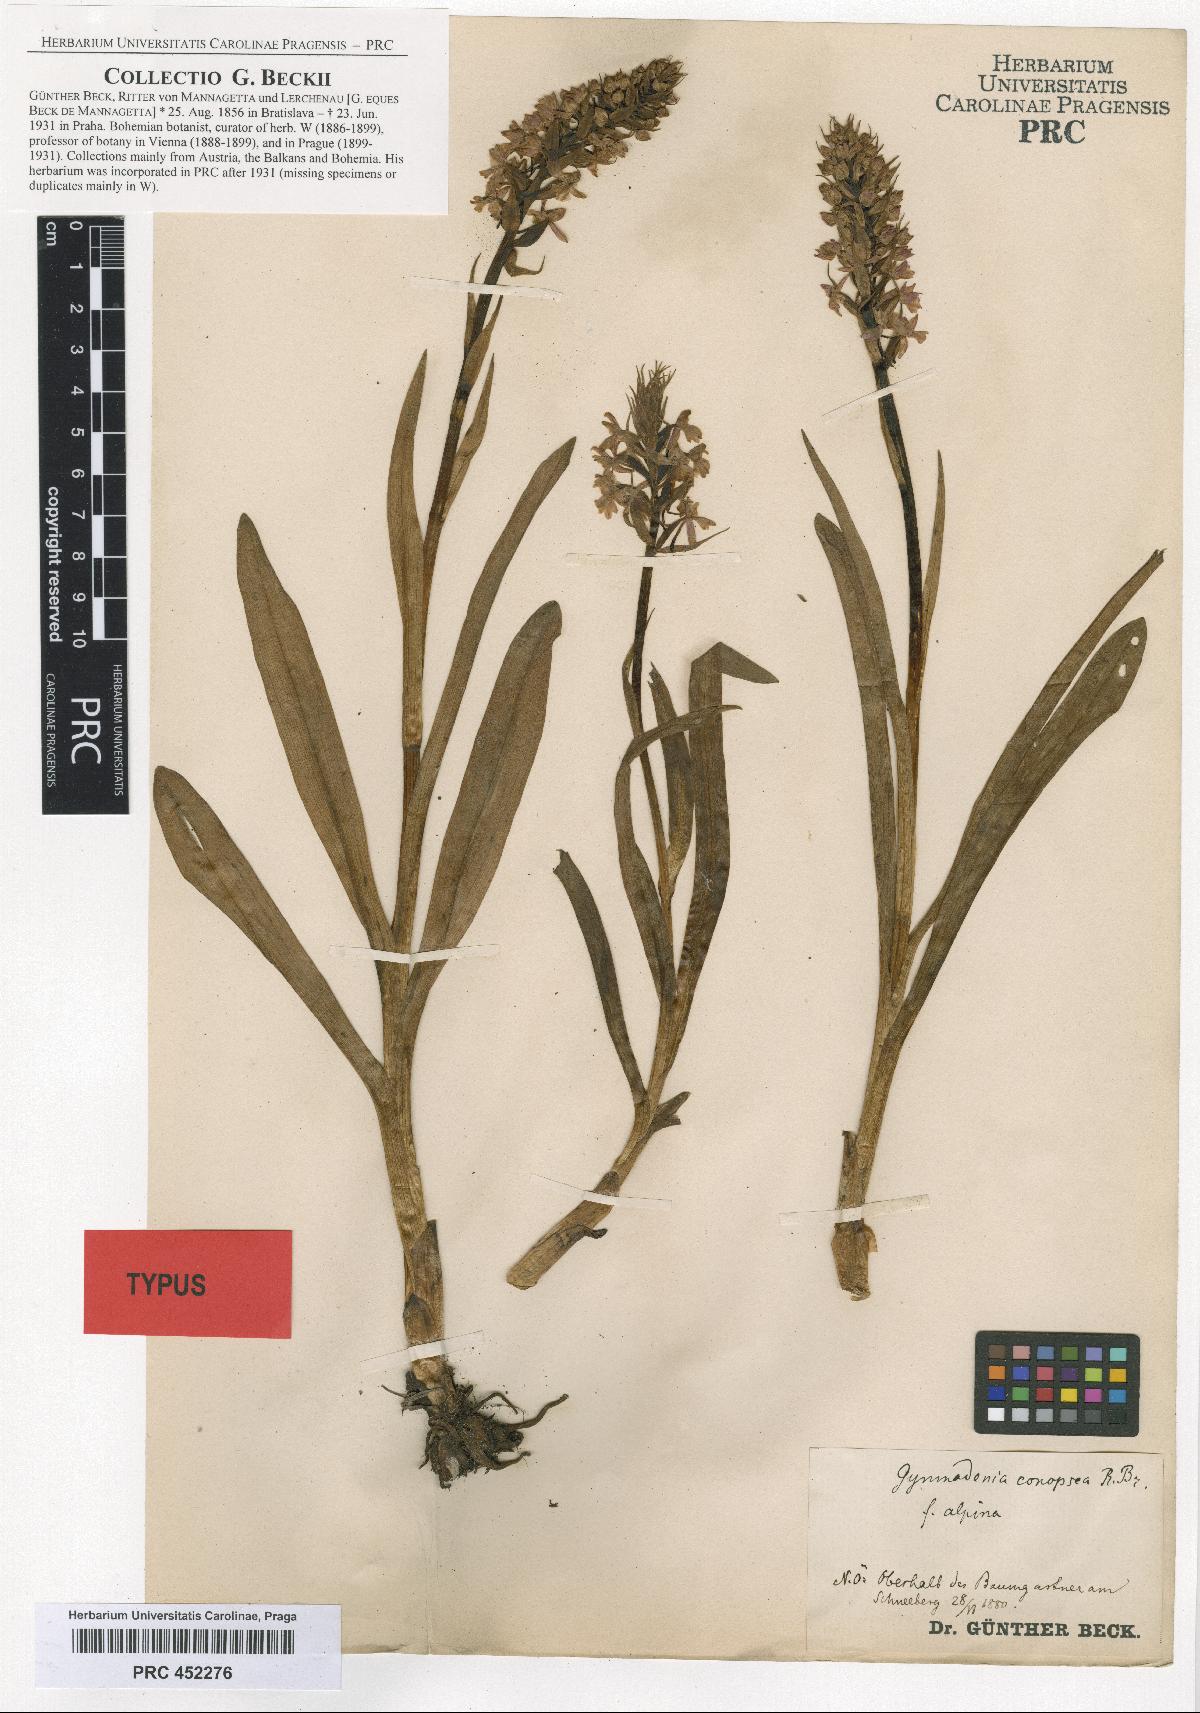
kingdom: Plantae
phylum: Tracheophyta
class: Liliopsida
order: Asparagales
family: Orchidaceae
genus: Gymnadenia
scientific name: Gymnadenia conopsea
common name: Fragrant orchid
